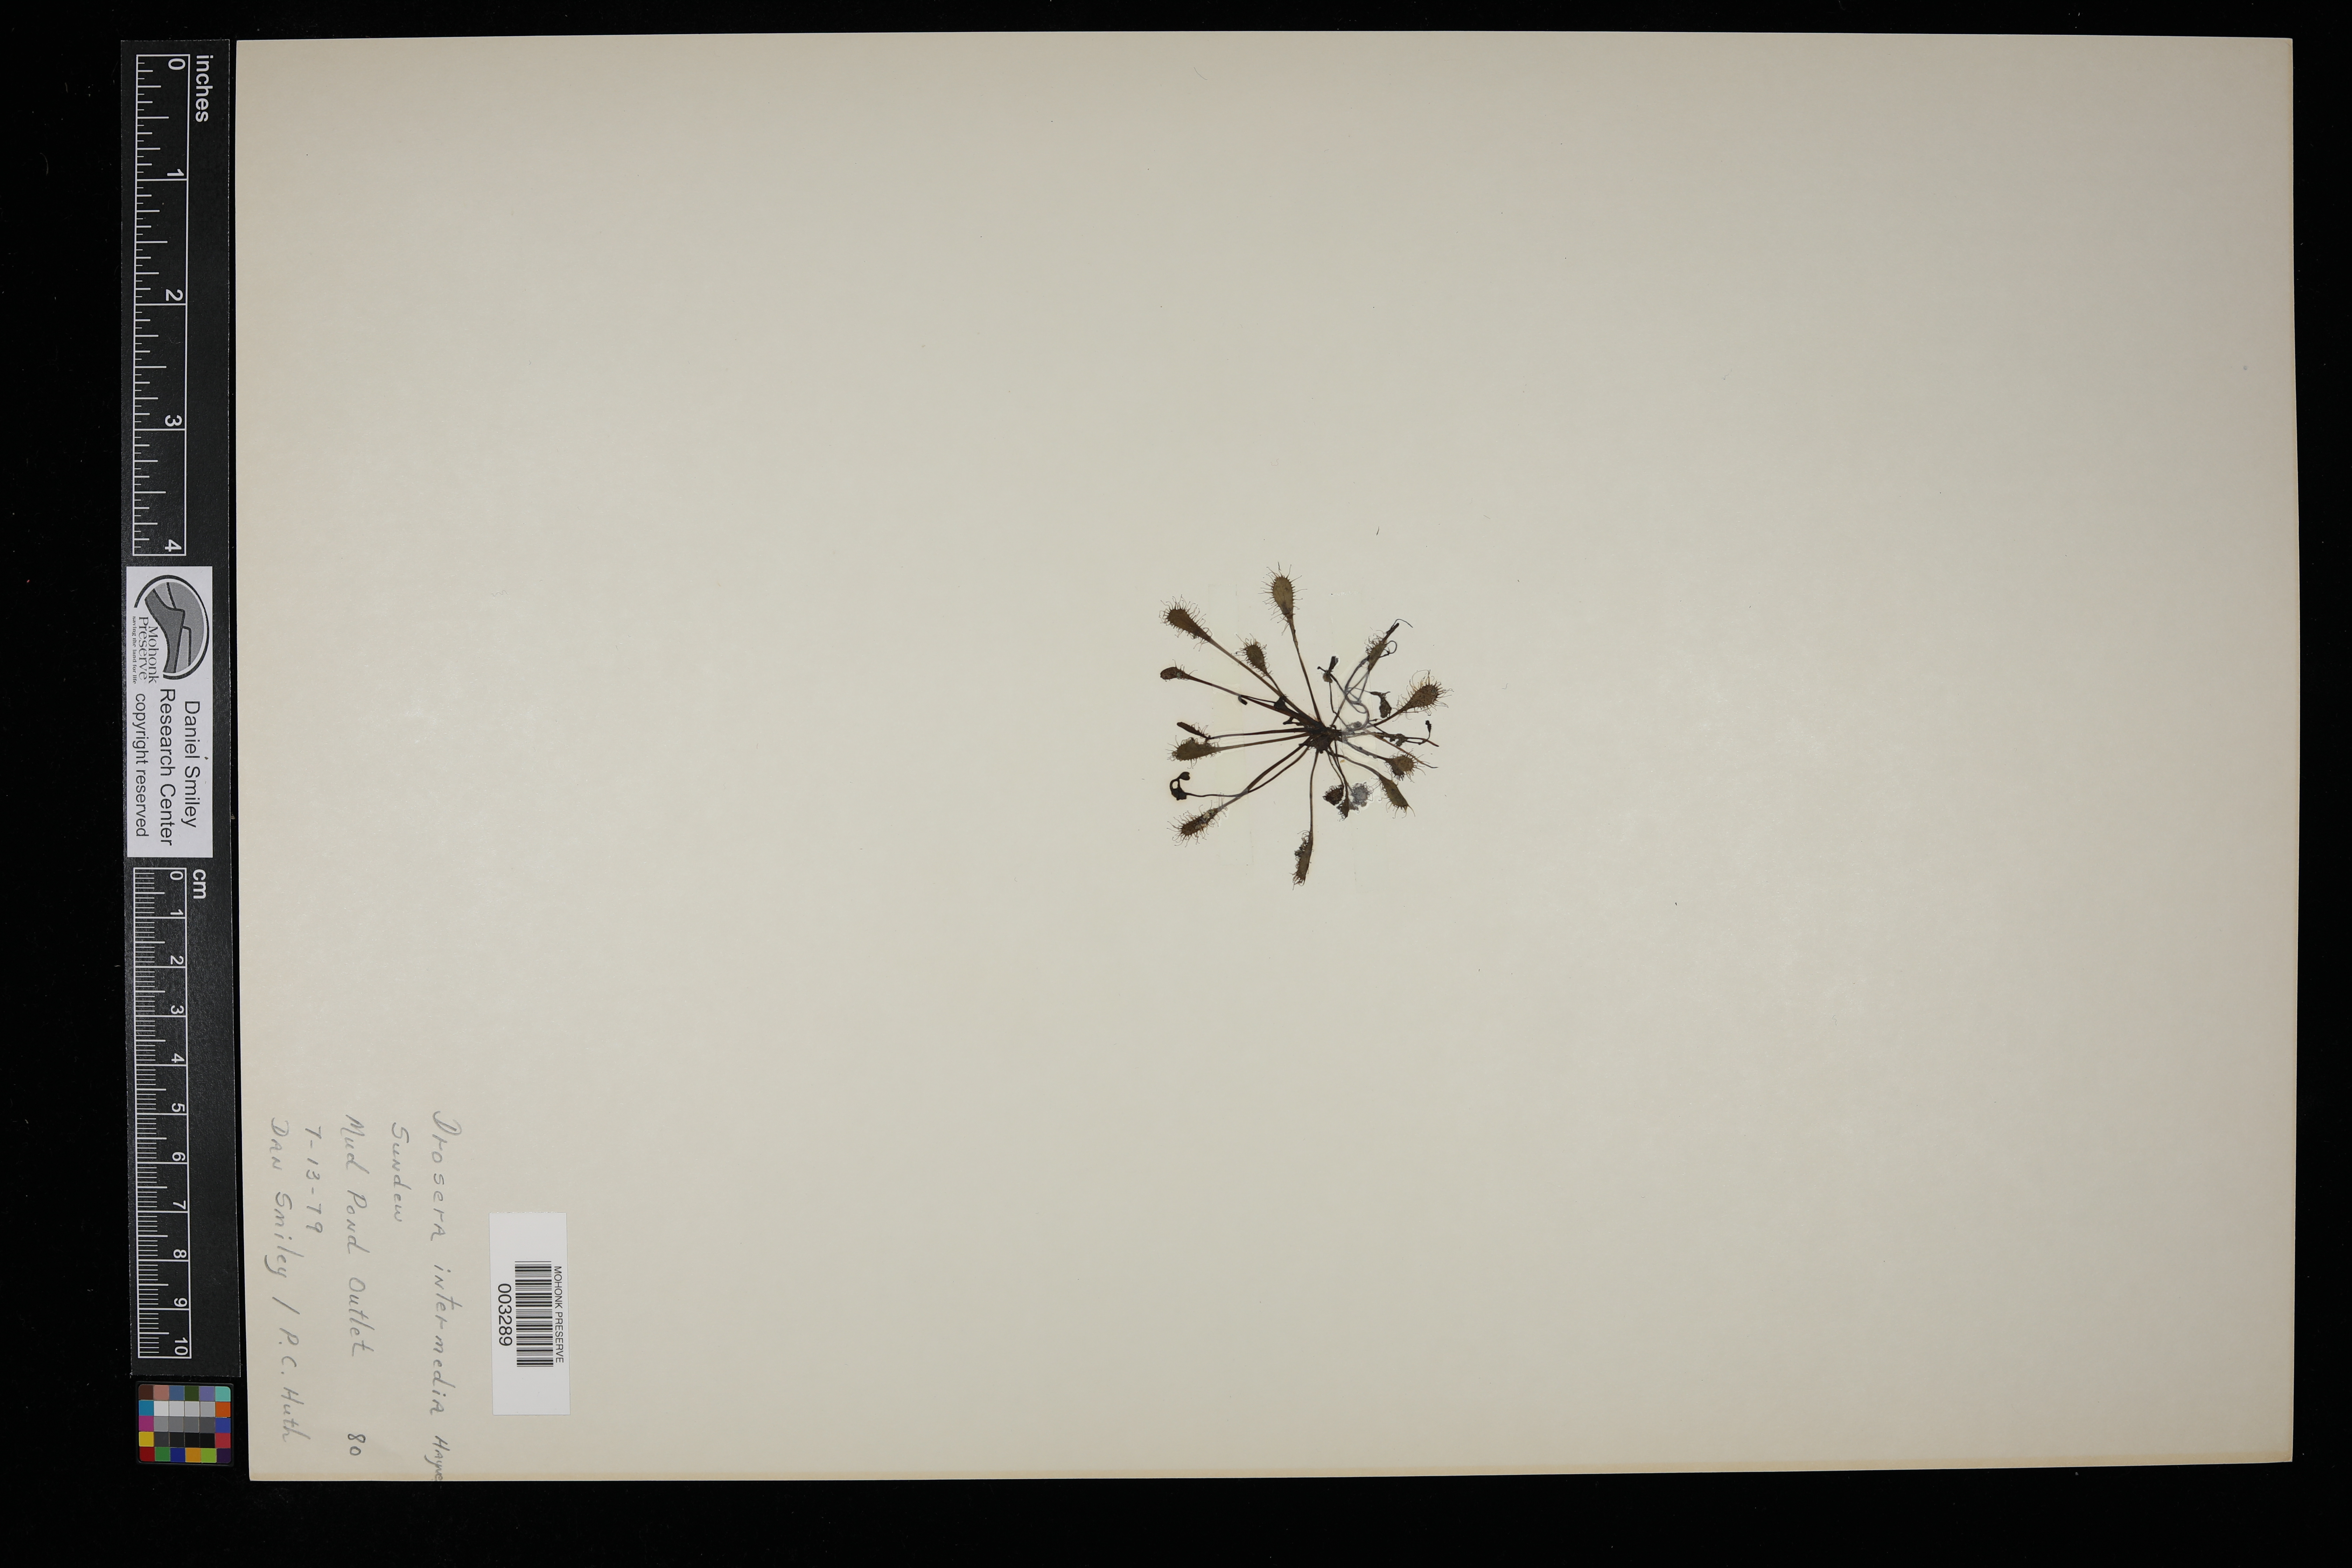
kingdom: Plantae
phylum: Tracheophyta
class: Magnoliopsida
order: Caryophyllales
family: Droseraceae
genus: Drosera
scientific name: Drosera intermedia
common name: Oblong-leaved sundew
